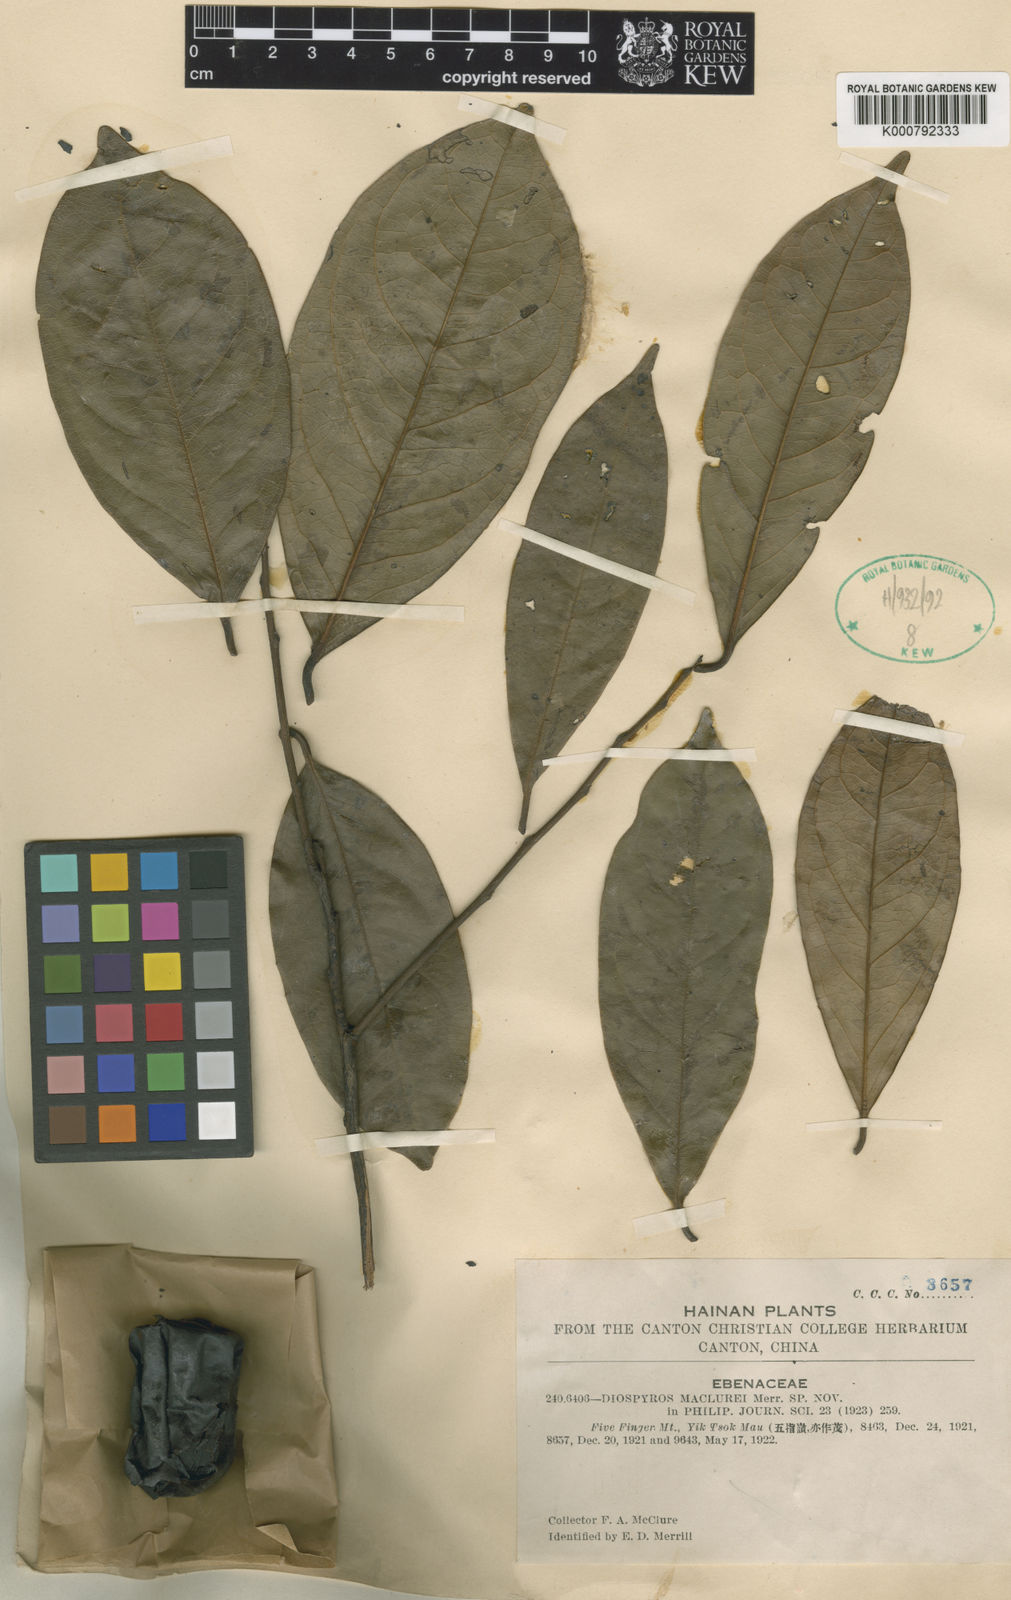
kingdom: Plantae
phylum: Tracheophyta
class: Magnoliopsida
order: Ericales
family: Ebenaceae
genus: Diospyros
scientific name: Diospyros maclurei
